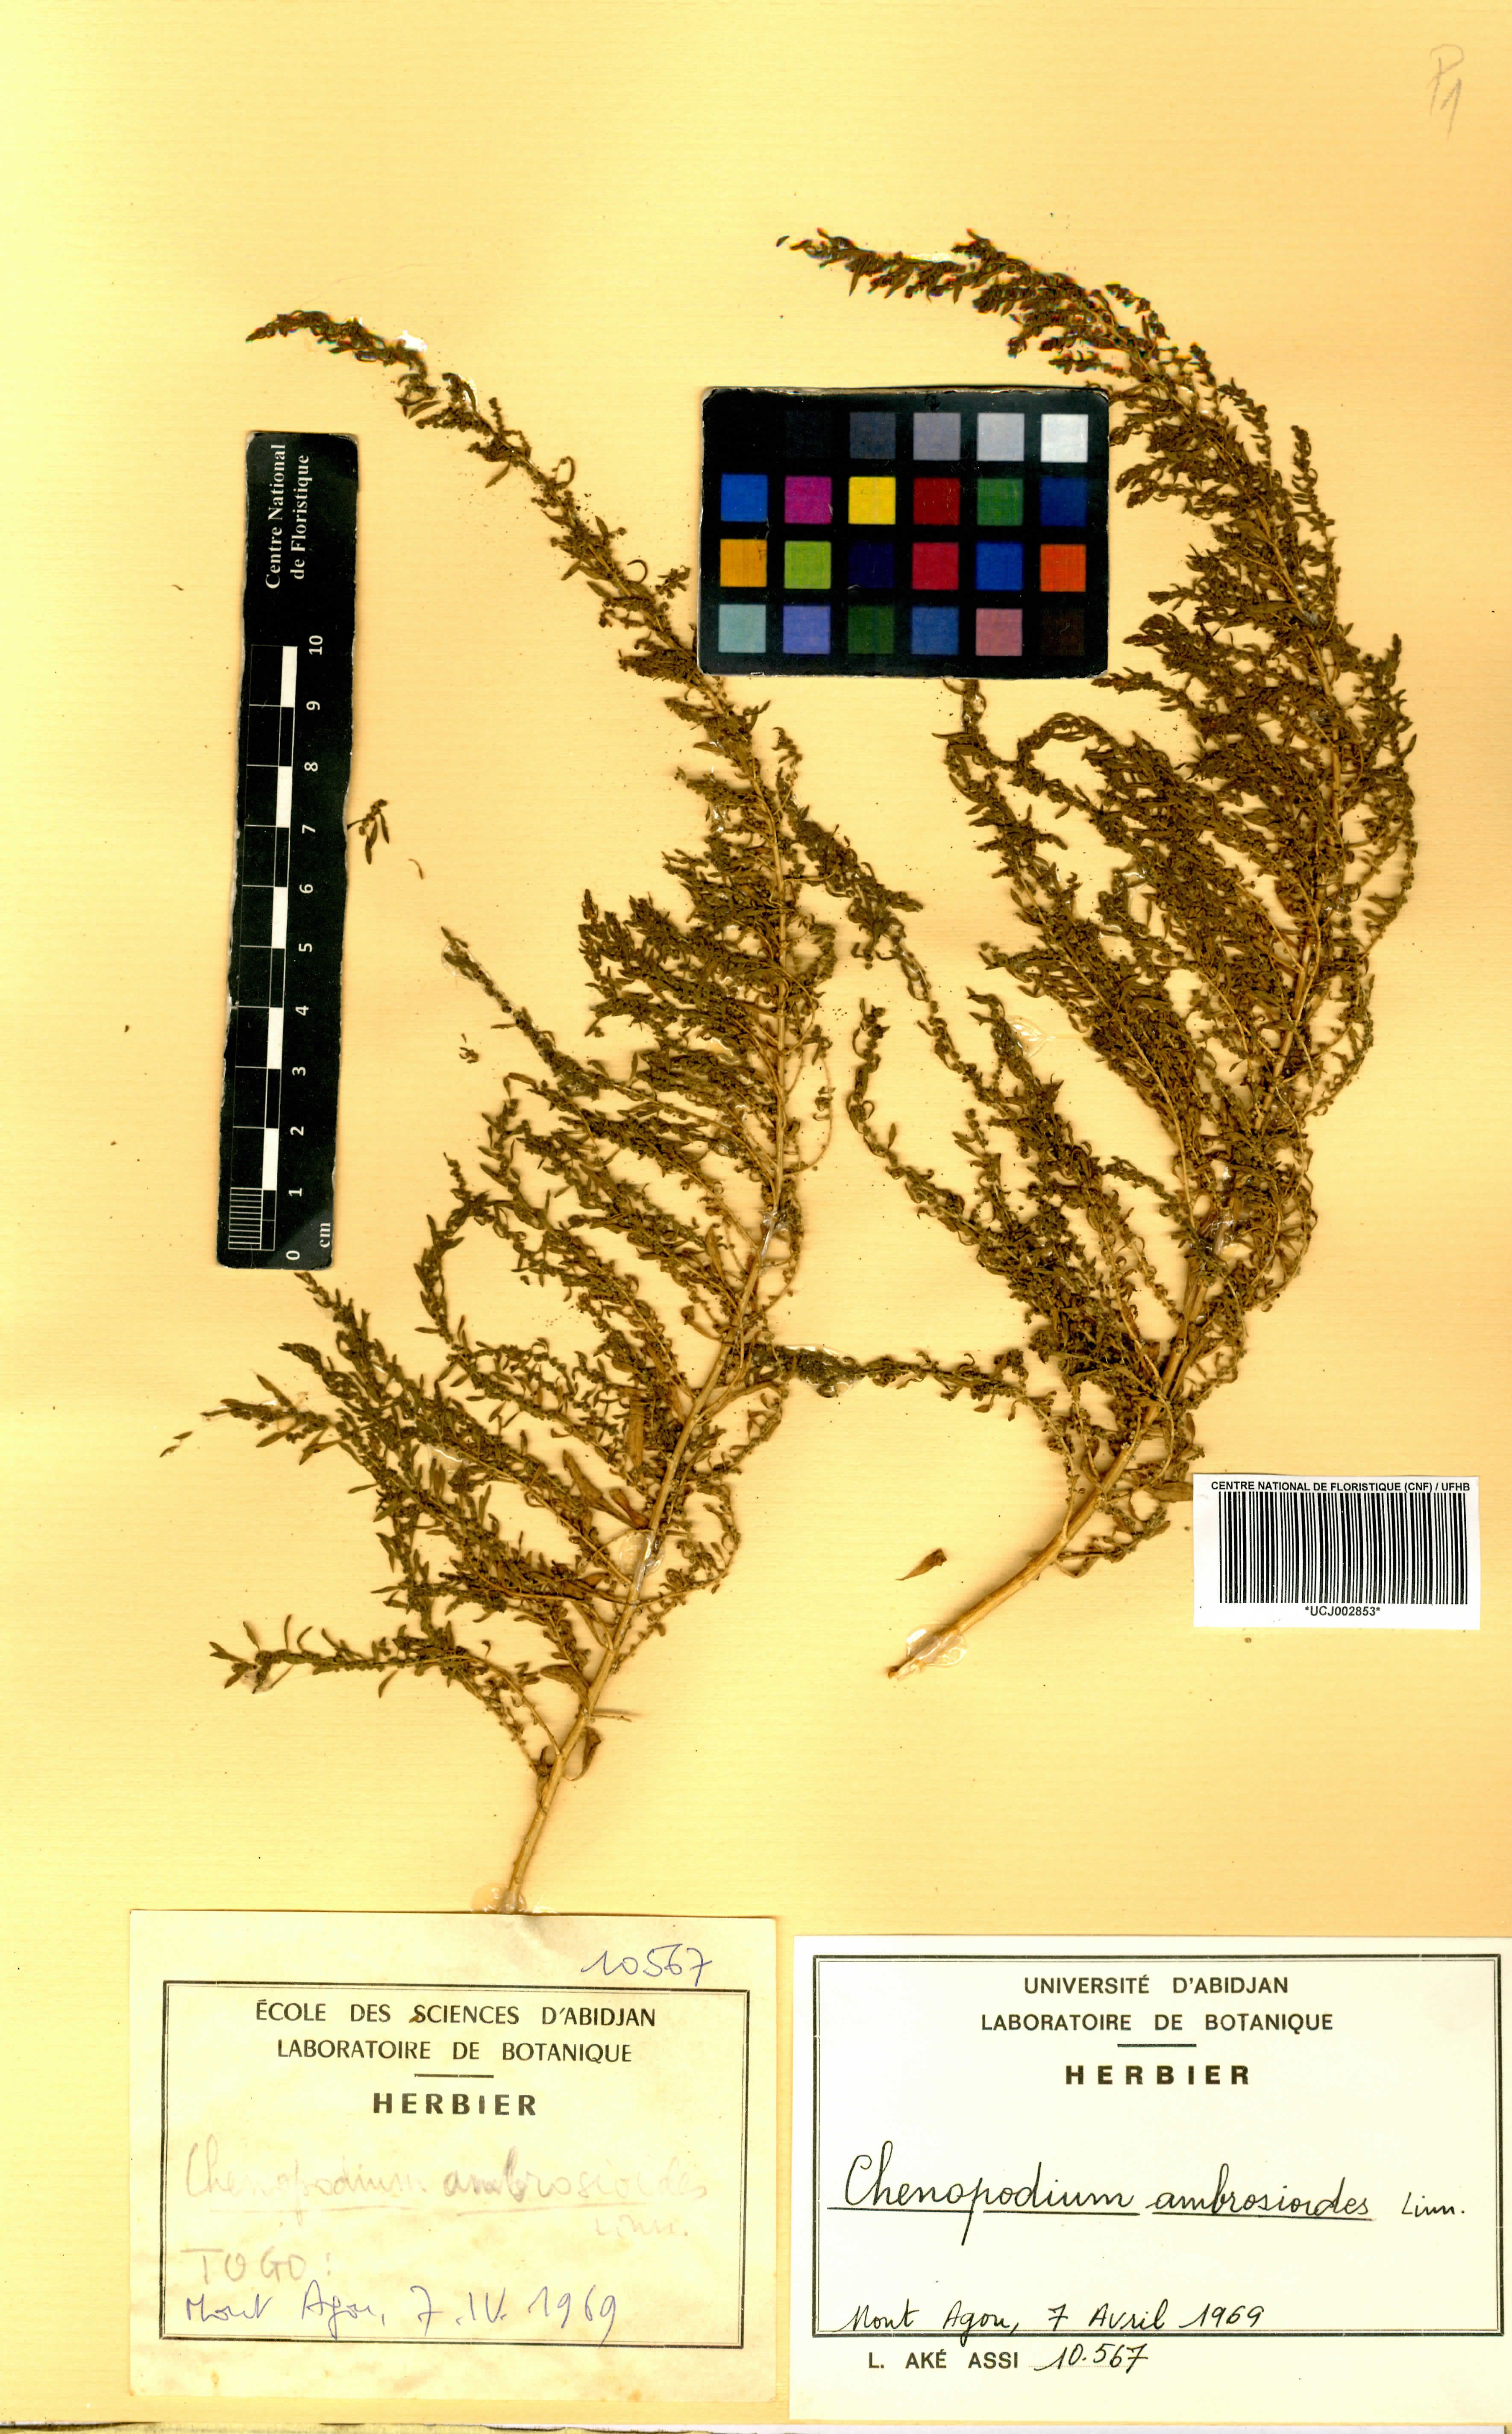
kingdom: Plantae
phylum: Tracheophyta
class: Magnoliopsida
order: Caryophyllales
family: Amaranthaceae
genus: Dysphania
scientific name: Dysphania ambrosioides
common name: Wormseed
